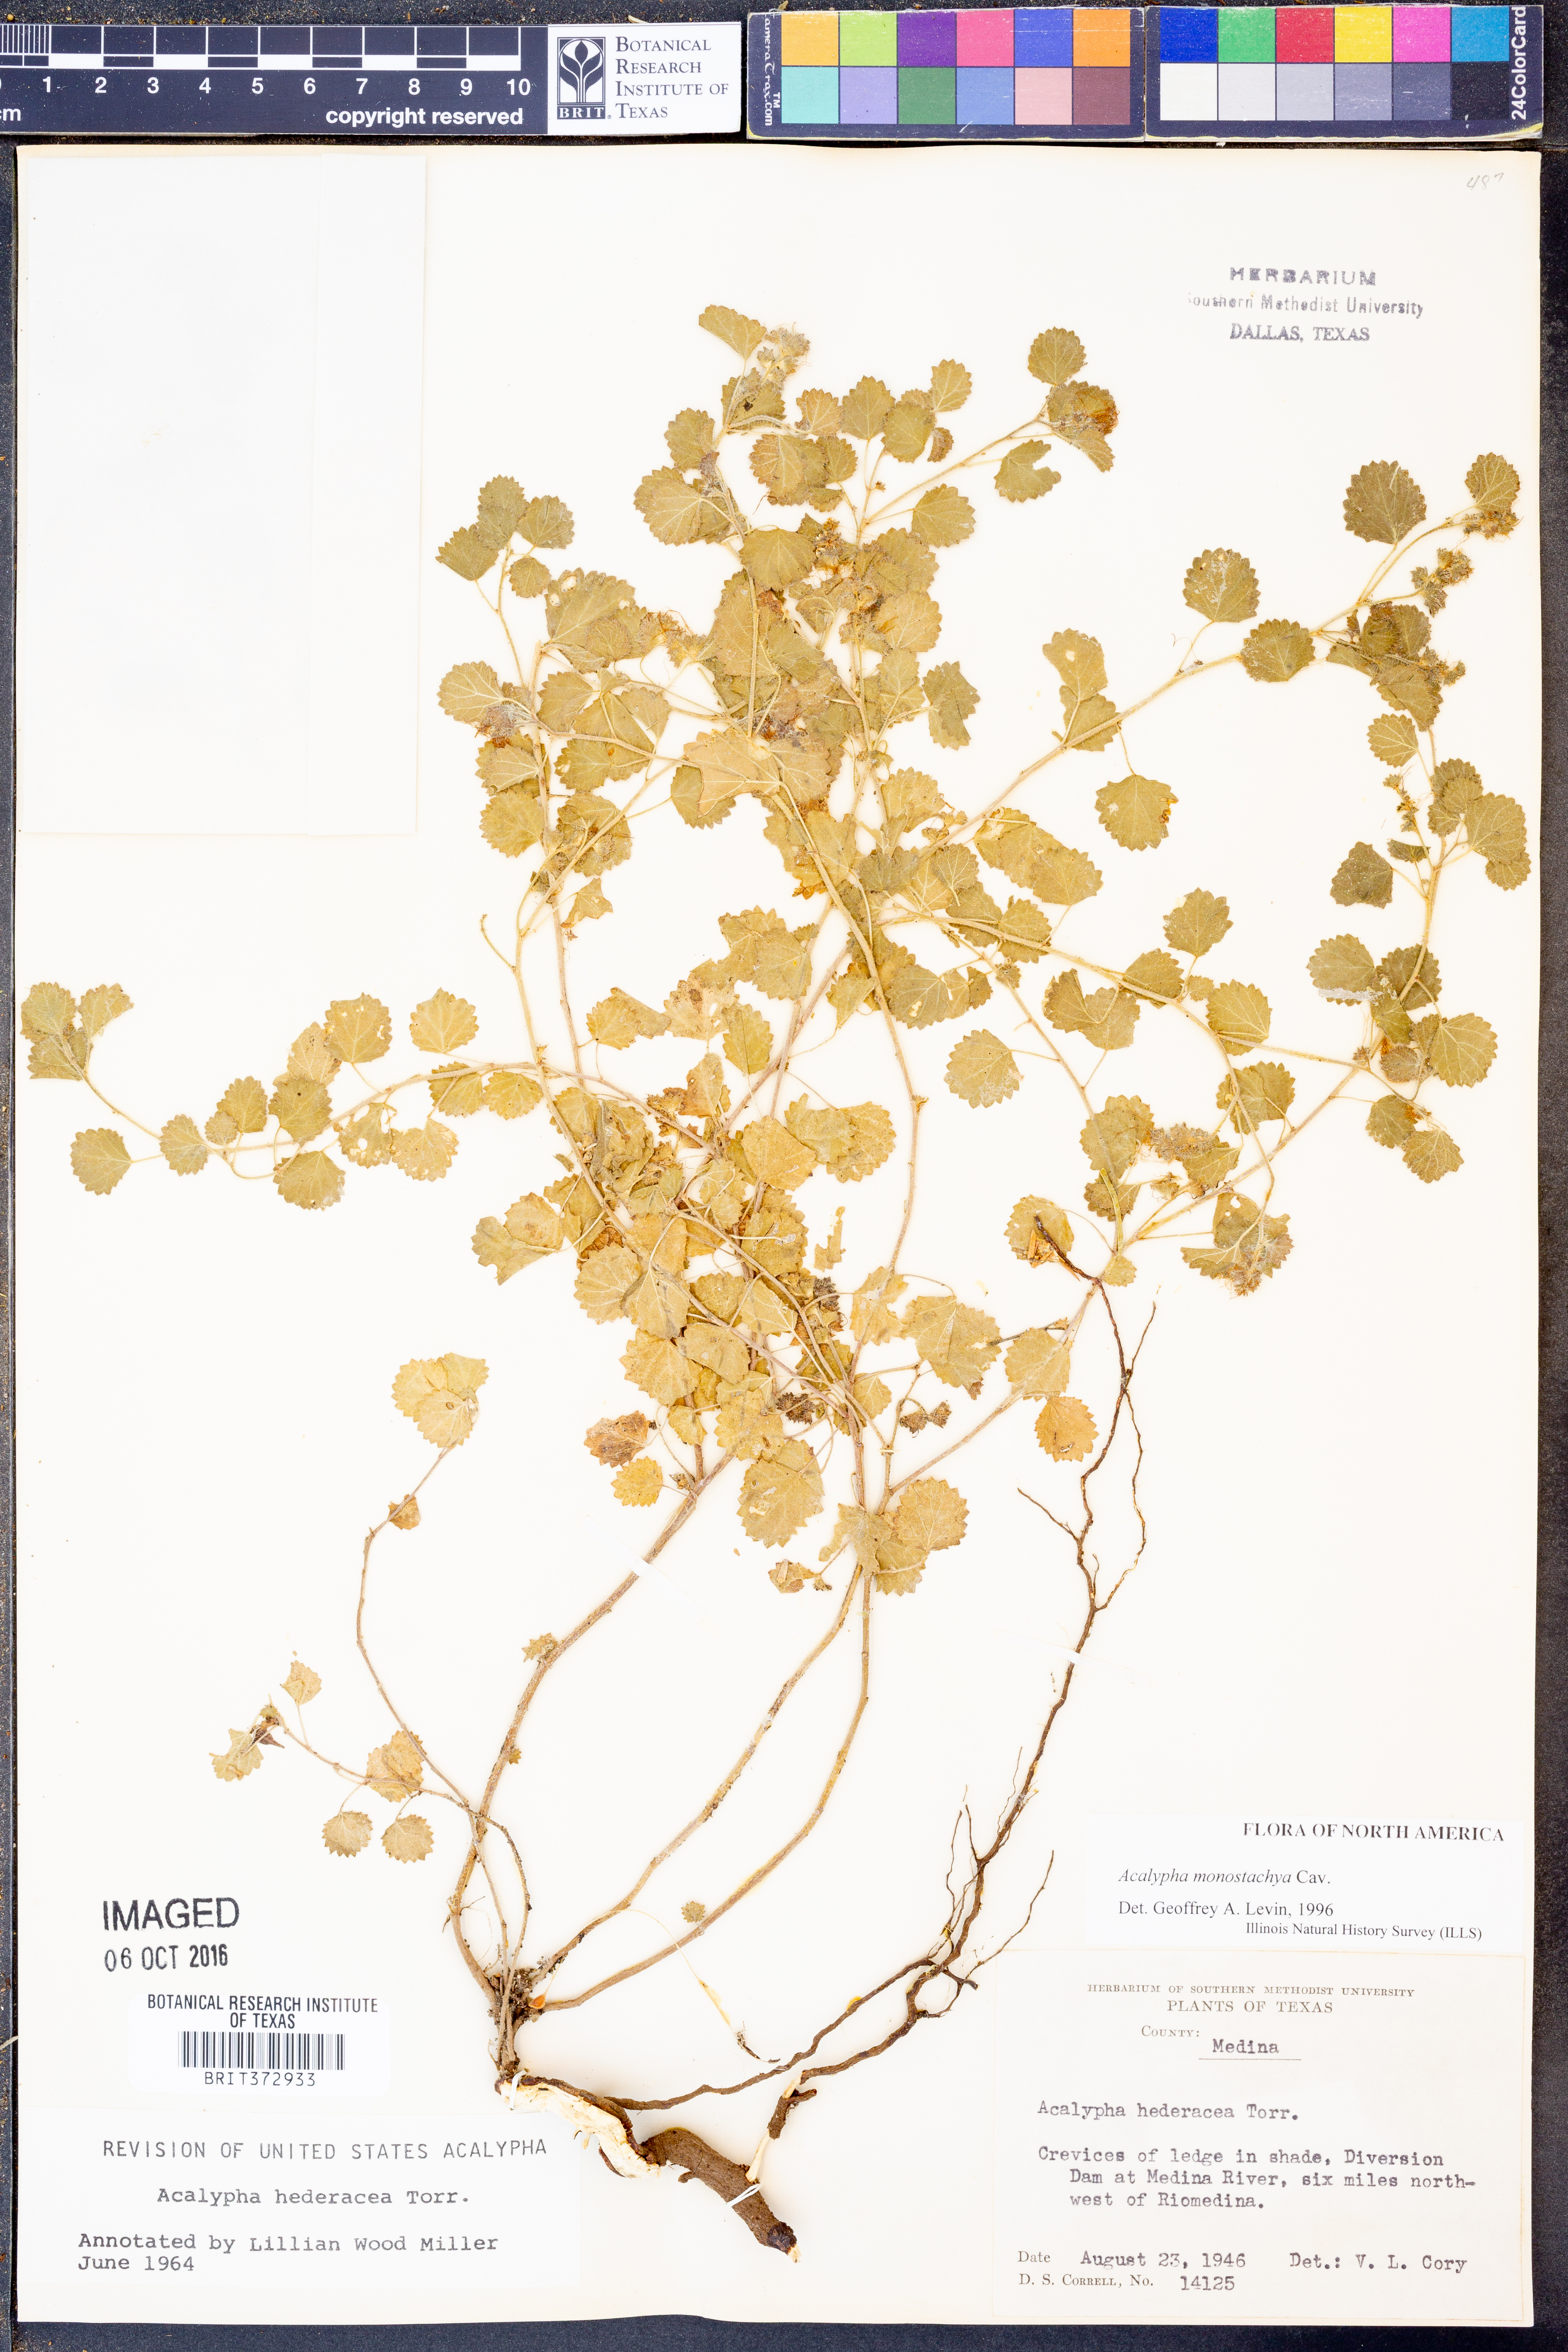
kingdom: Plantae
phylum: Tracheophyta
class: Magnoliopsida
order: Malpighiales
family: Euphorbiaceae
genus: Acalypha
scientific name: Acalypha monostachya
